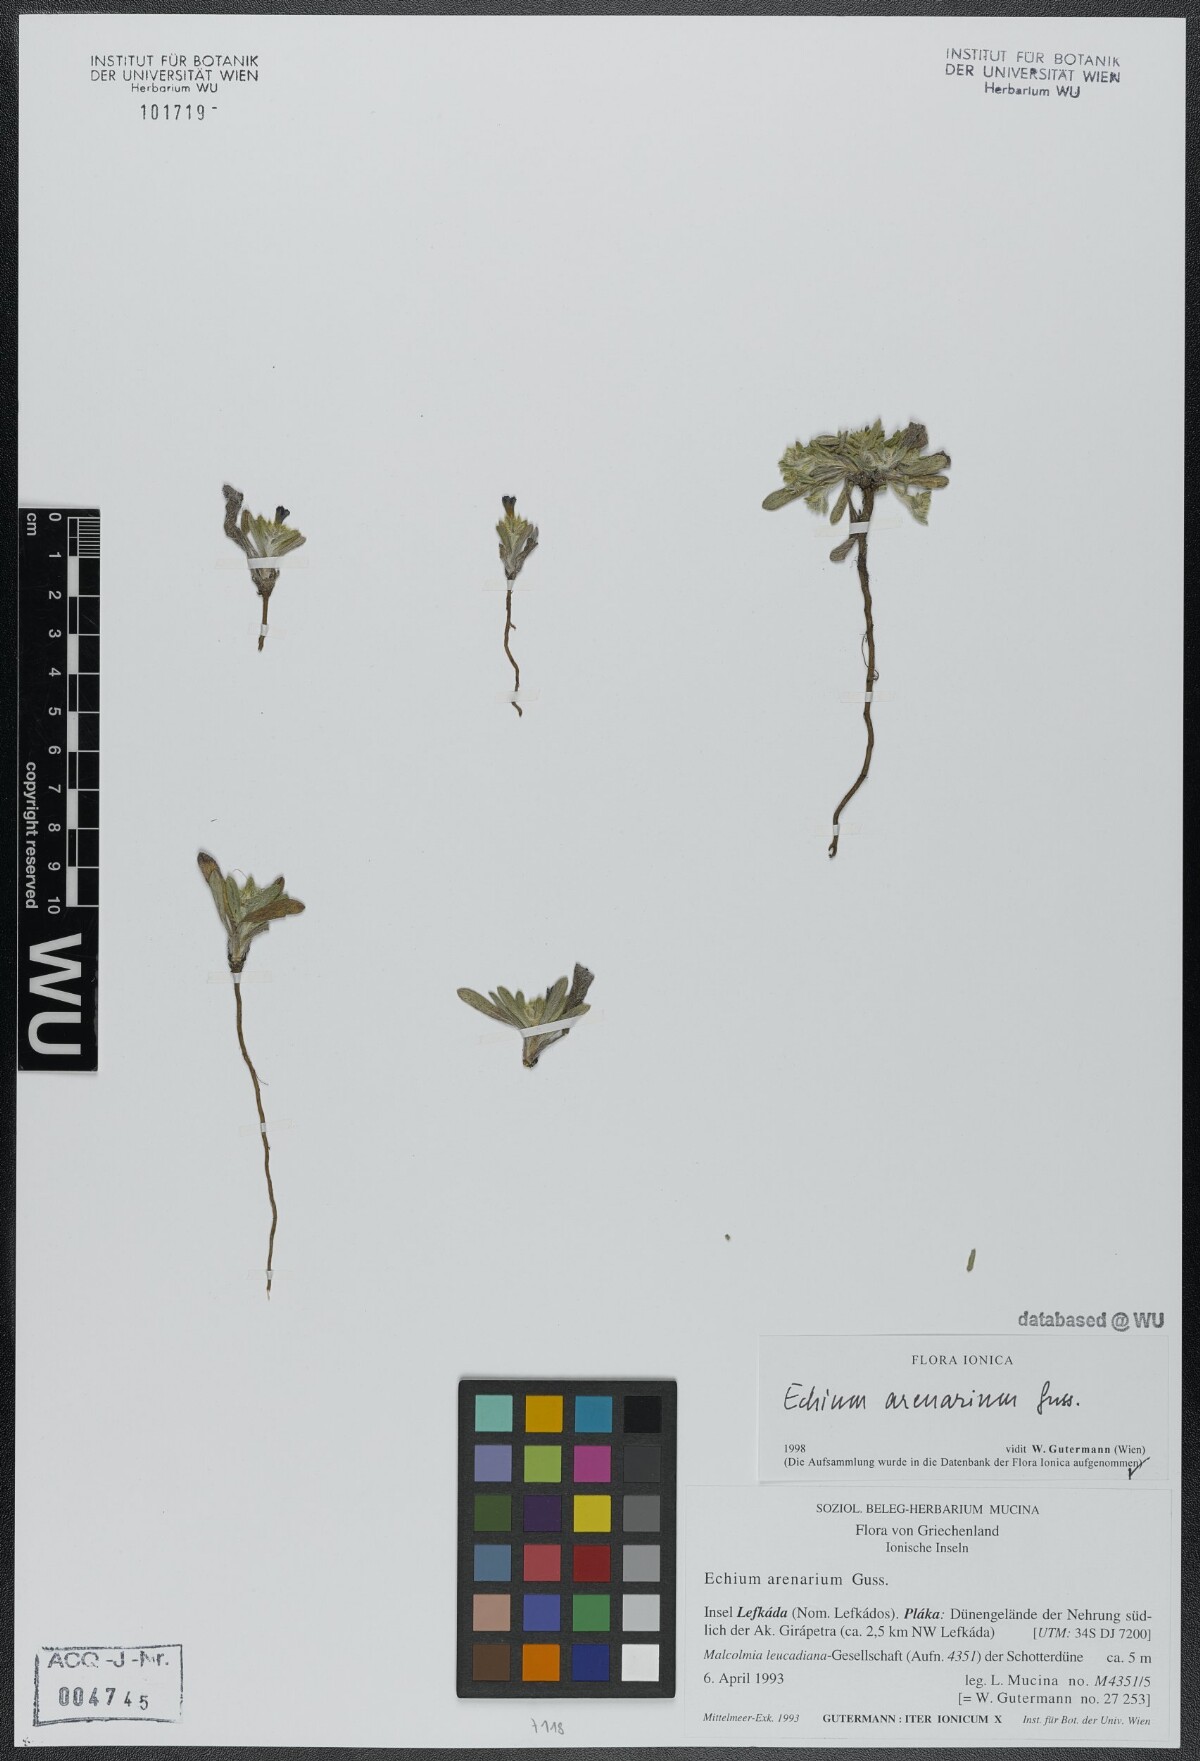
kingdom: Plantae
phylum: Tracheophyta
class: Magnoliopsida
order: Boraginales
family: Boraginaceae
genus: Echium
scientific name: Echium arenarium
